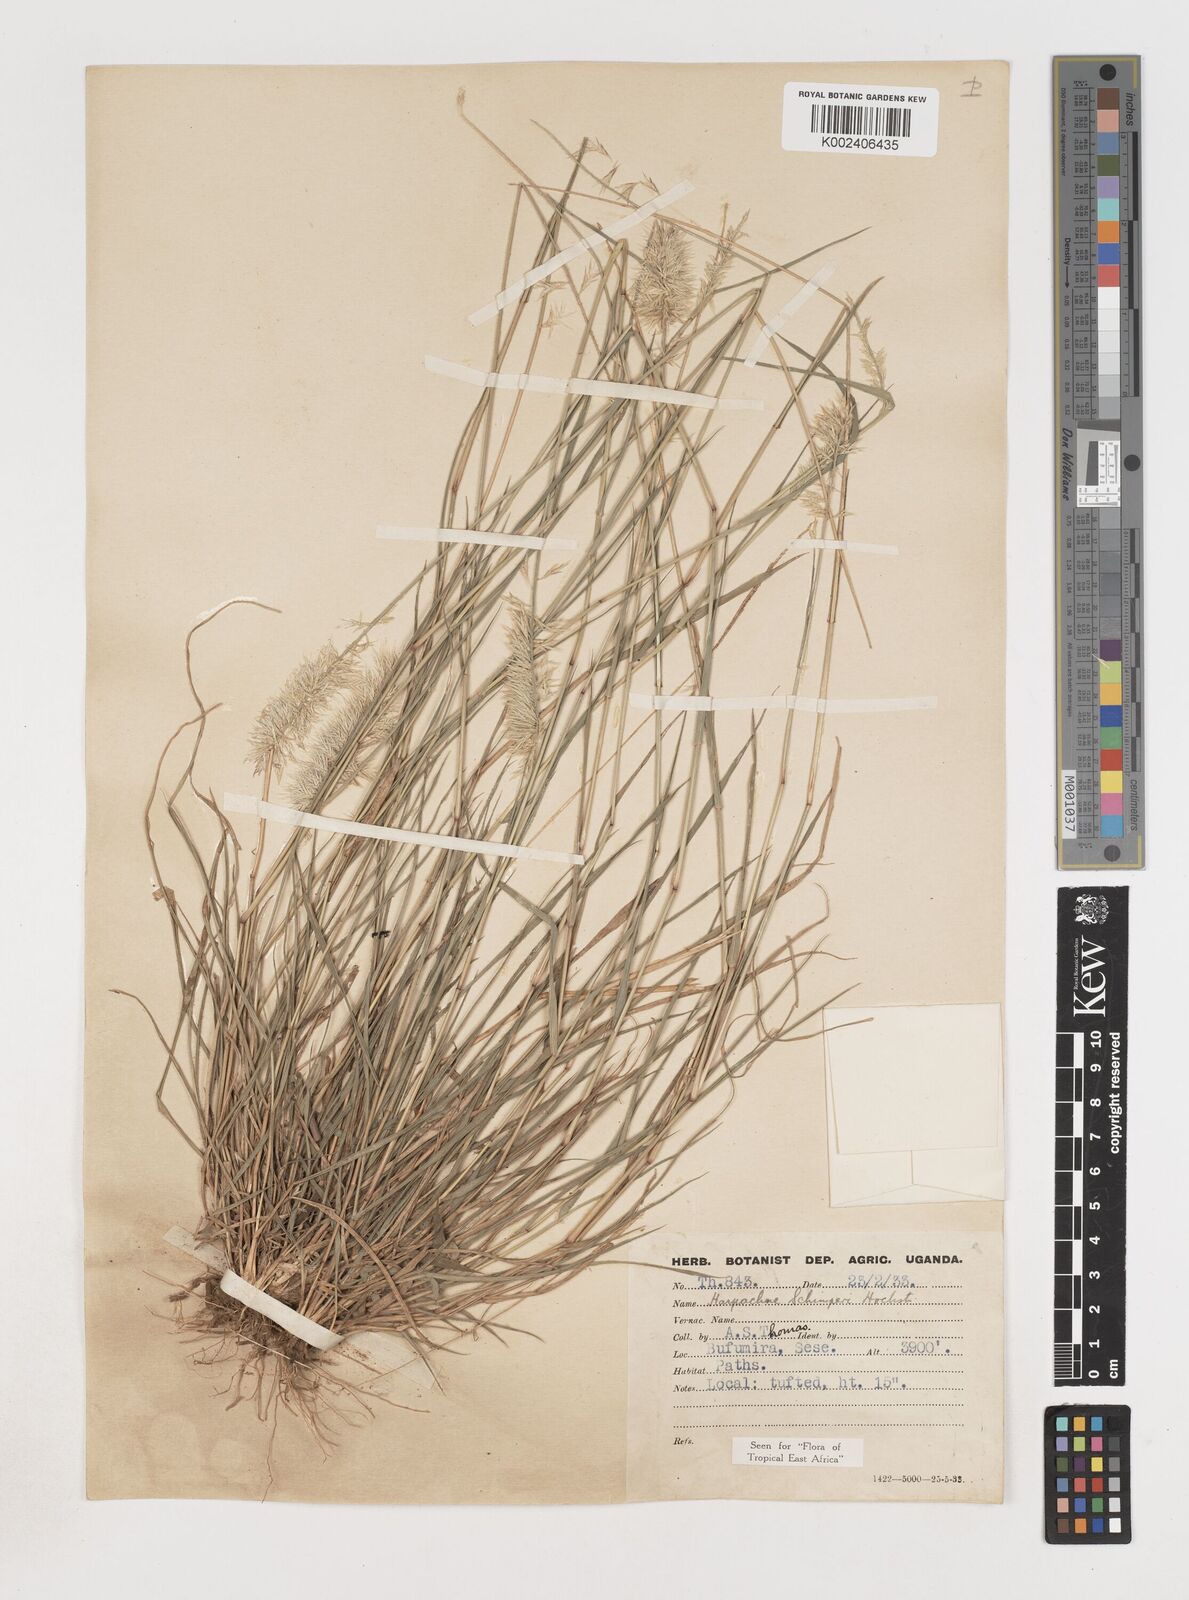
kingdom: Plantae
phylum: Tracheophyta
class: Liliopsida
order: Poales
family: Poaceae
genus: Harpachne
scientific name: Harpachne schimperi
